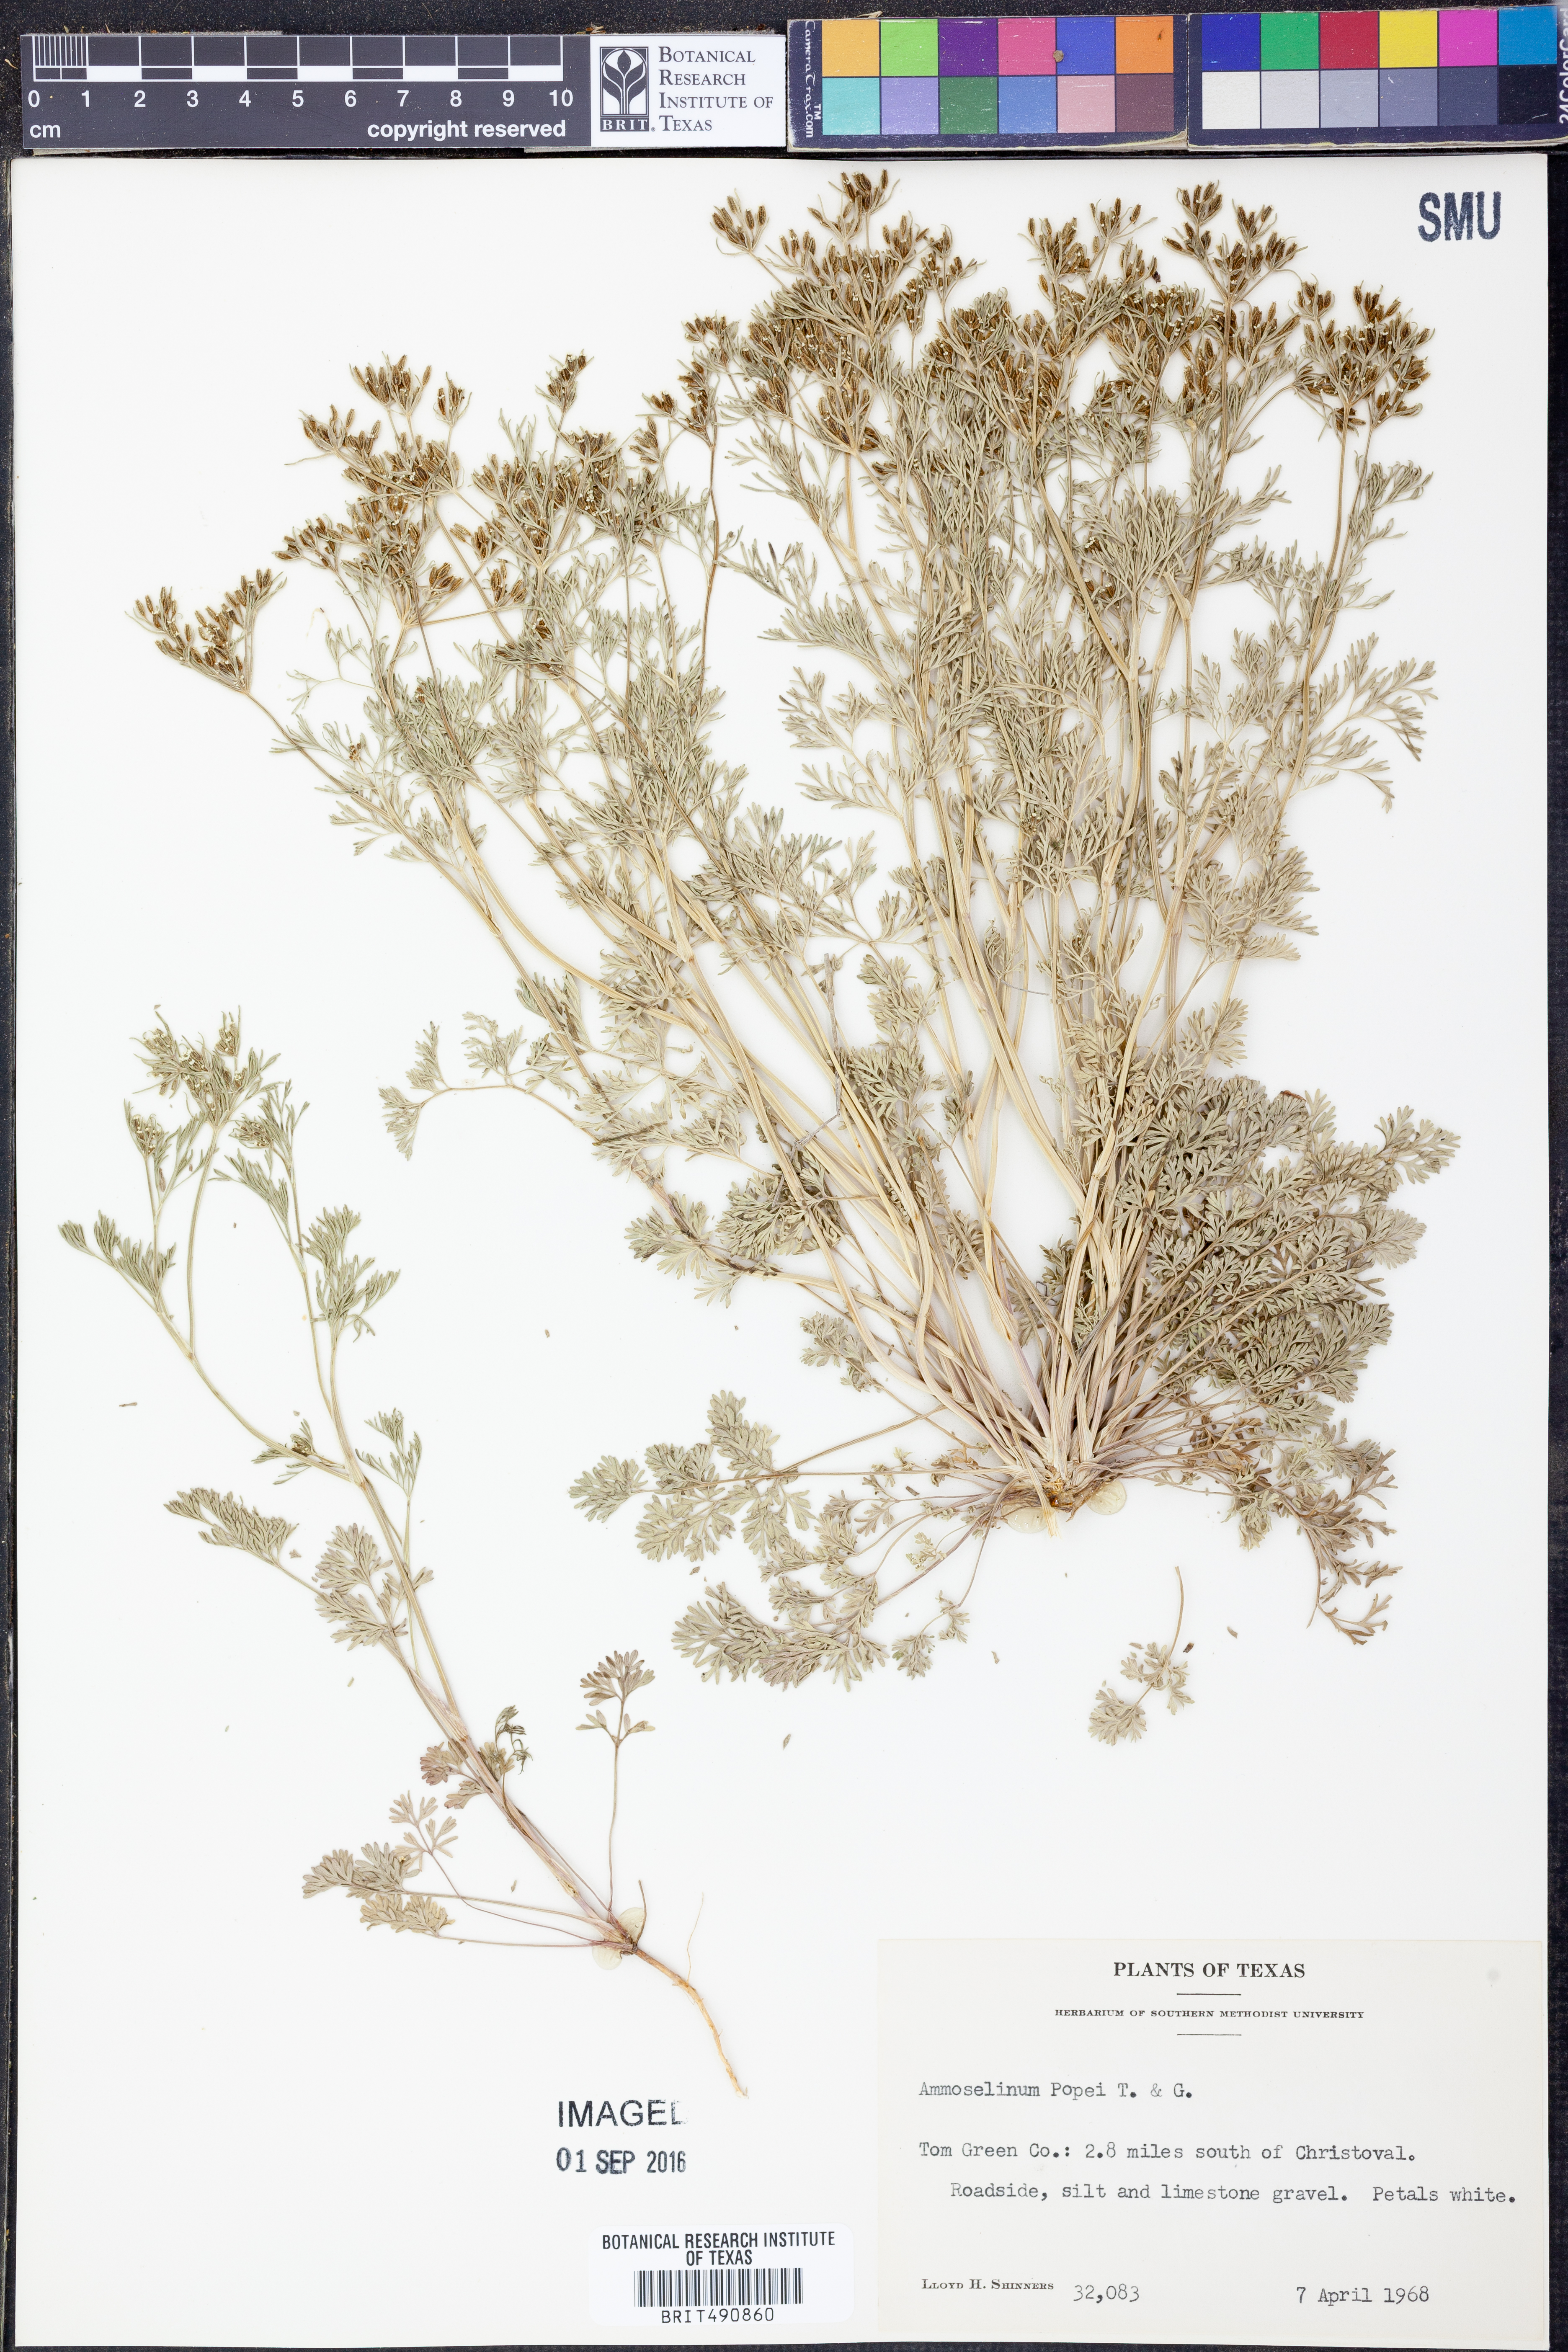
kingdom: Plantae
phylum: Tracheophyta
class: Magnoliopsida
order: Apiales
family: Apiaceae
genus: Ammoselinum
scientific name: Ammoselinum popei
